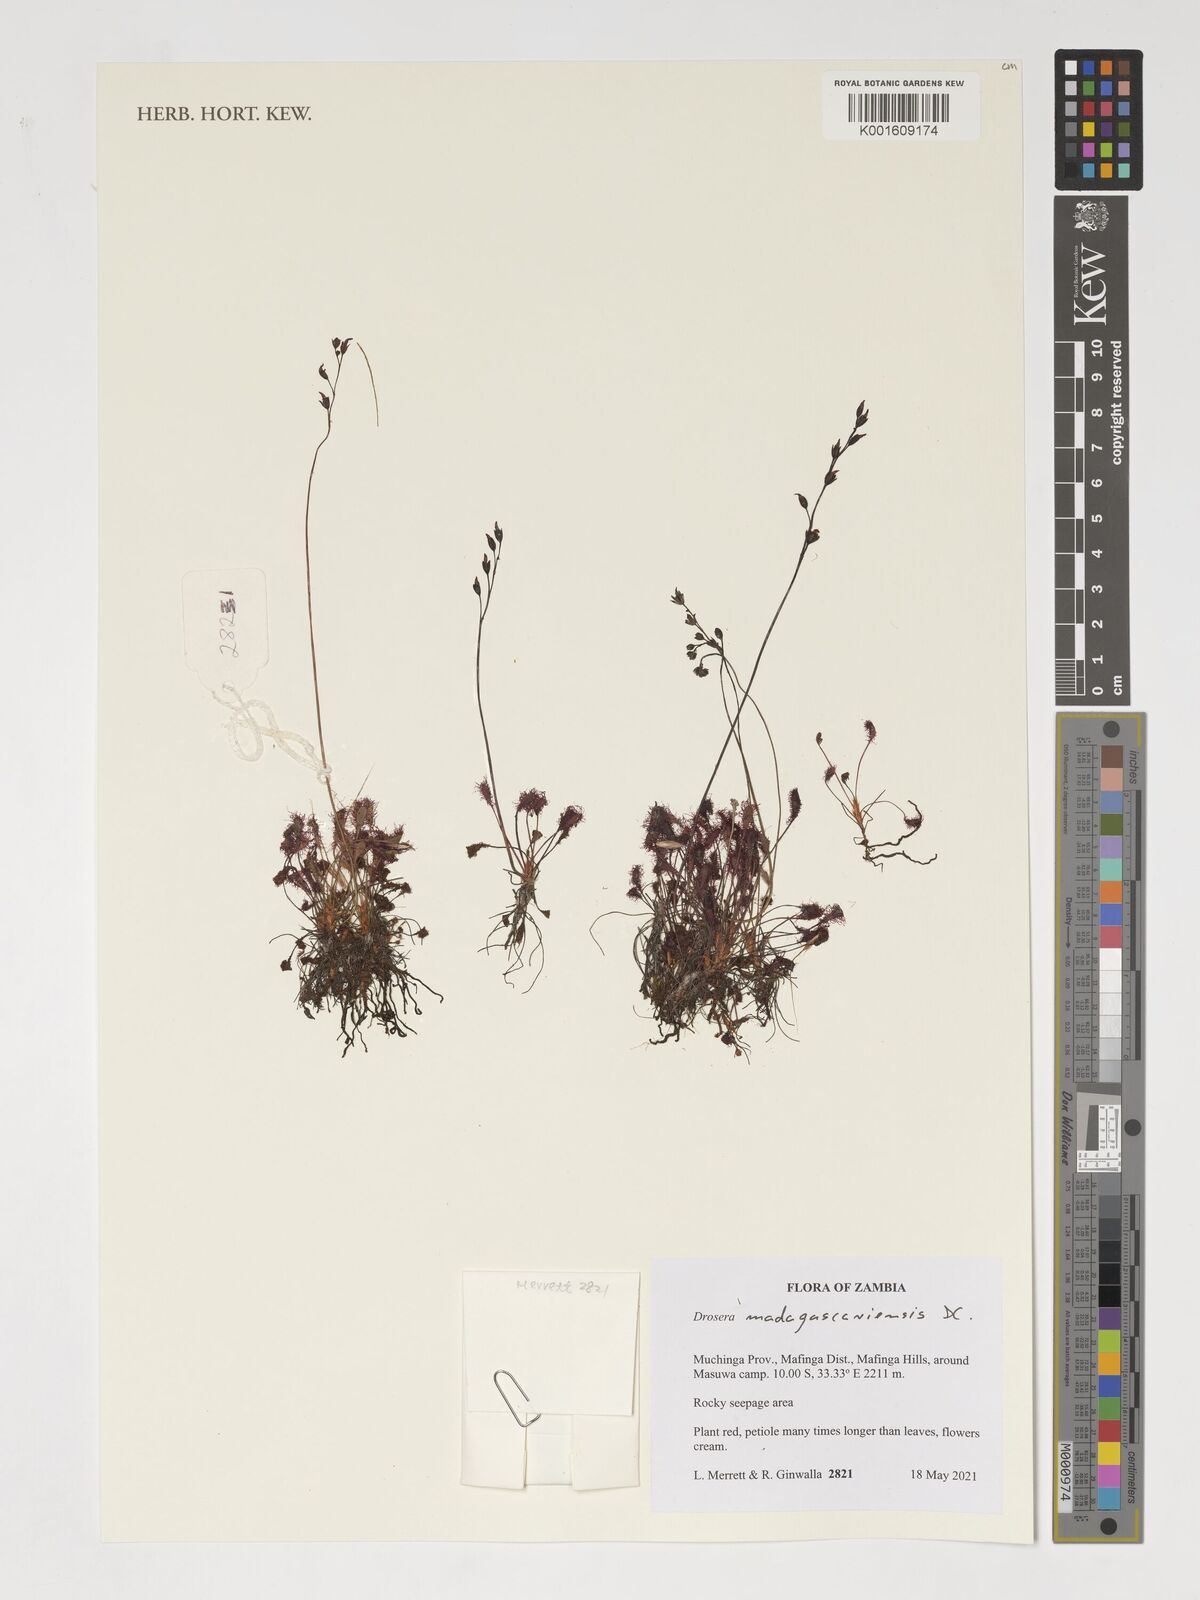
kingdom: Plantae
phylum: Tracheophyta
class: Magnoliopsida
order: Caryophyllales
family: Droseraceae
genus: Drosera
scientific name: Drosera madagascariensis
